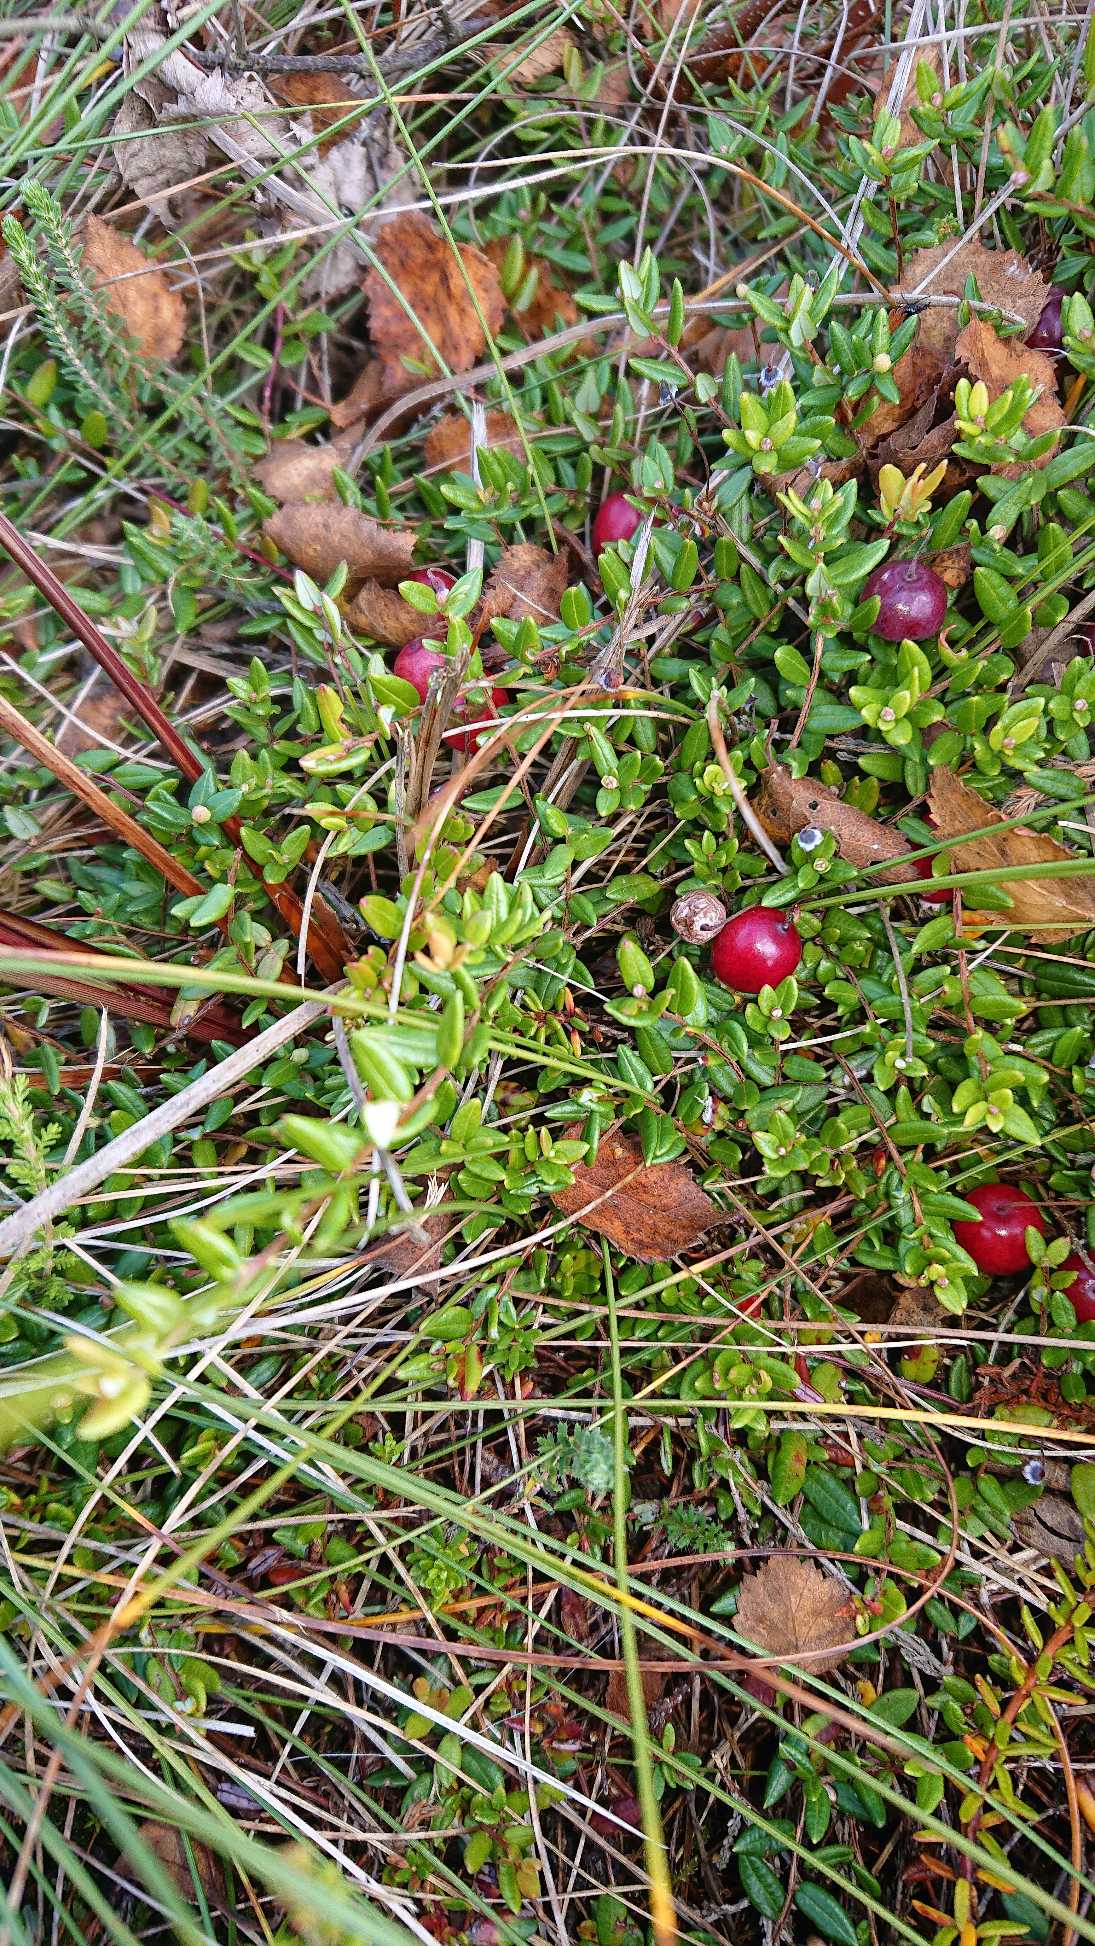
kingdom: Plantae
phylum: Tracheophyta
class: Magnoliopsida
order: Ericales
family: Ericaceae
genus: Vaccinium
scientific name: Vaccinium oxycoccos
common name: Tranebær
